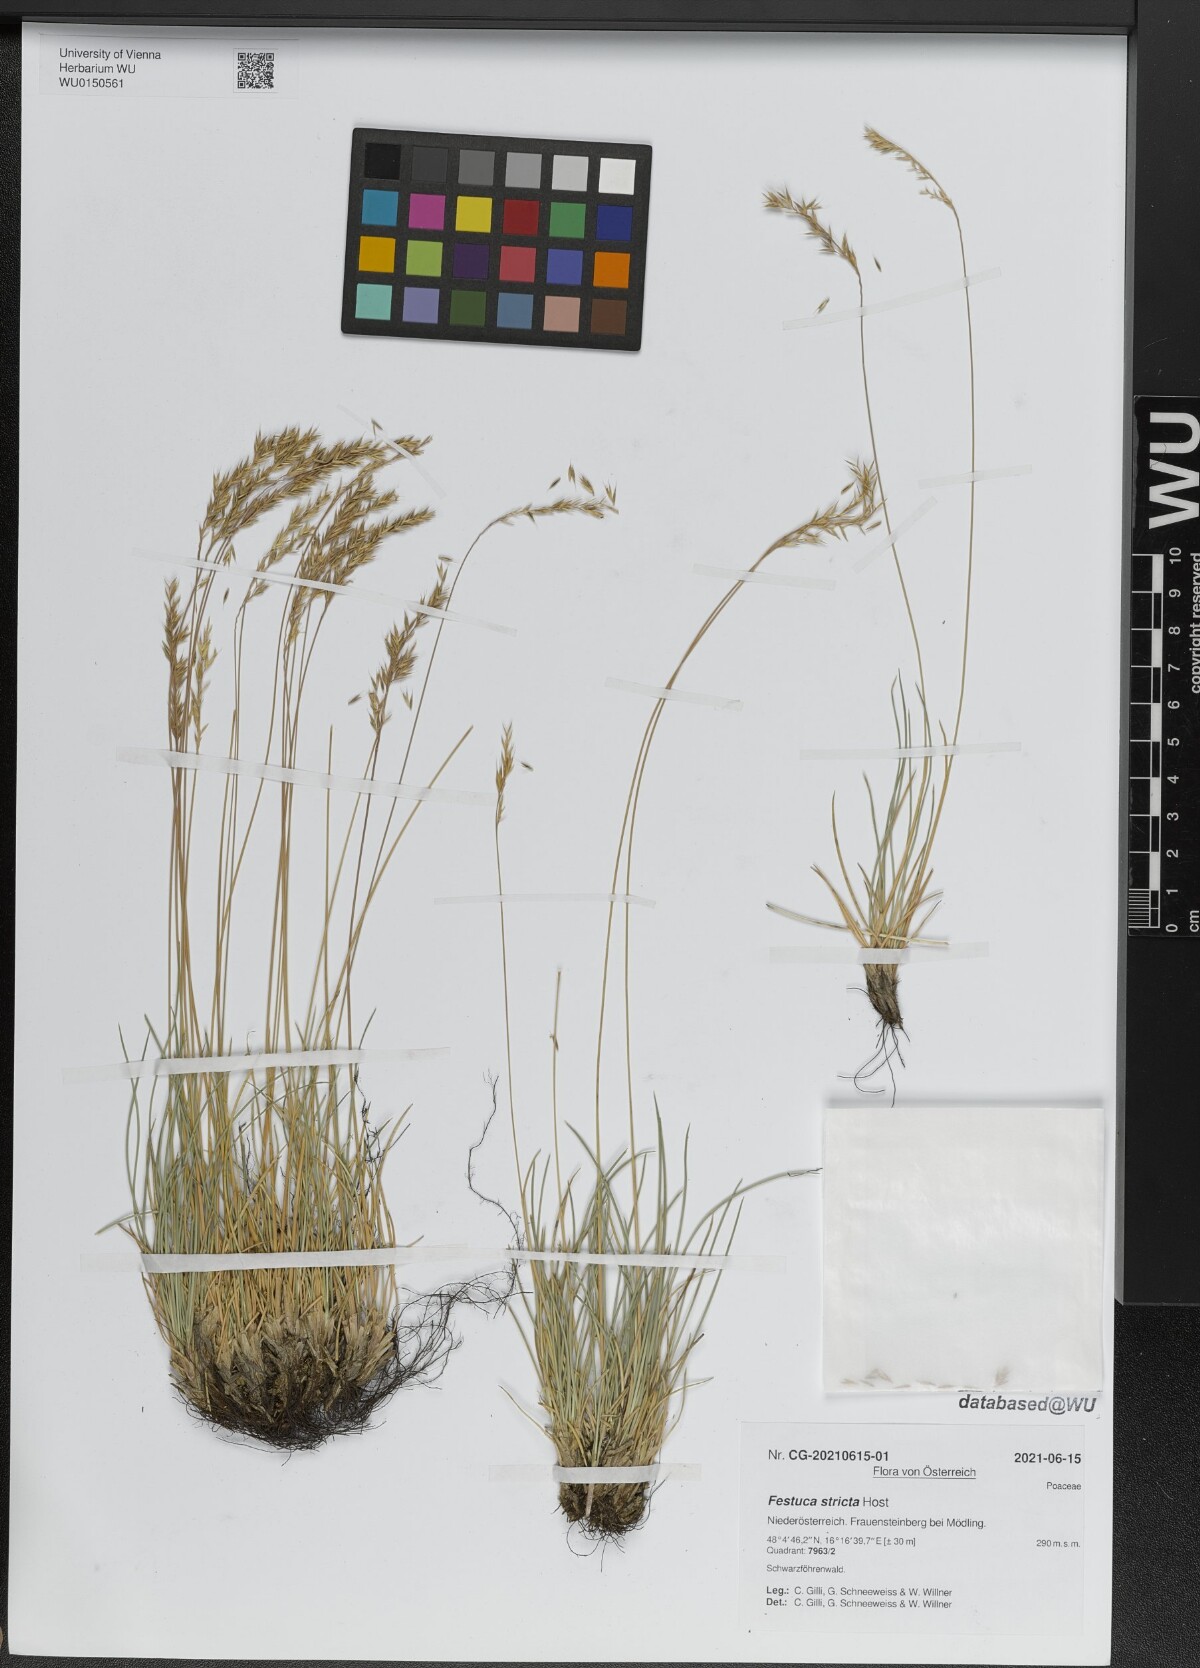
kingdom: Plantae
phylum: Tracheophyta
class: Liliopsida
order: Poales
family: Poaceae
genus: Festuca
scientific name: Festuca stricta
